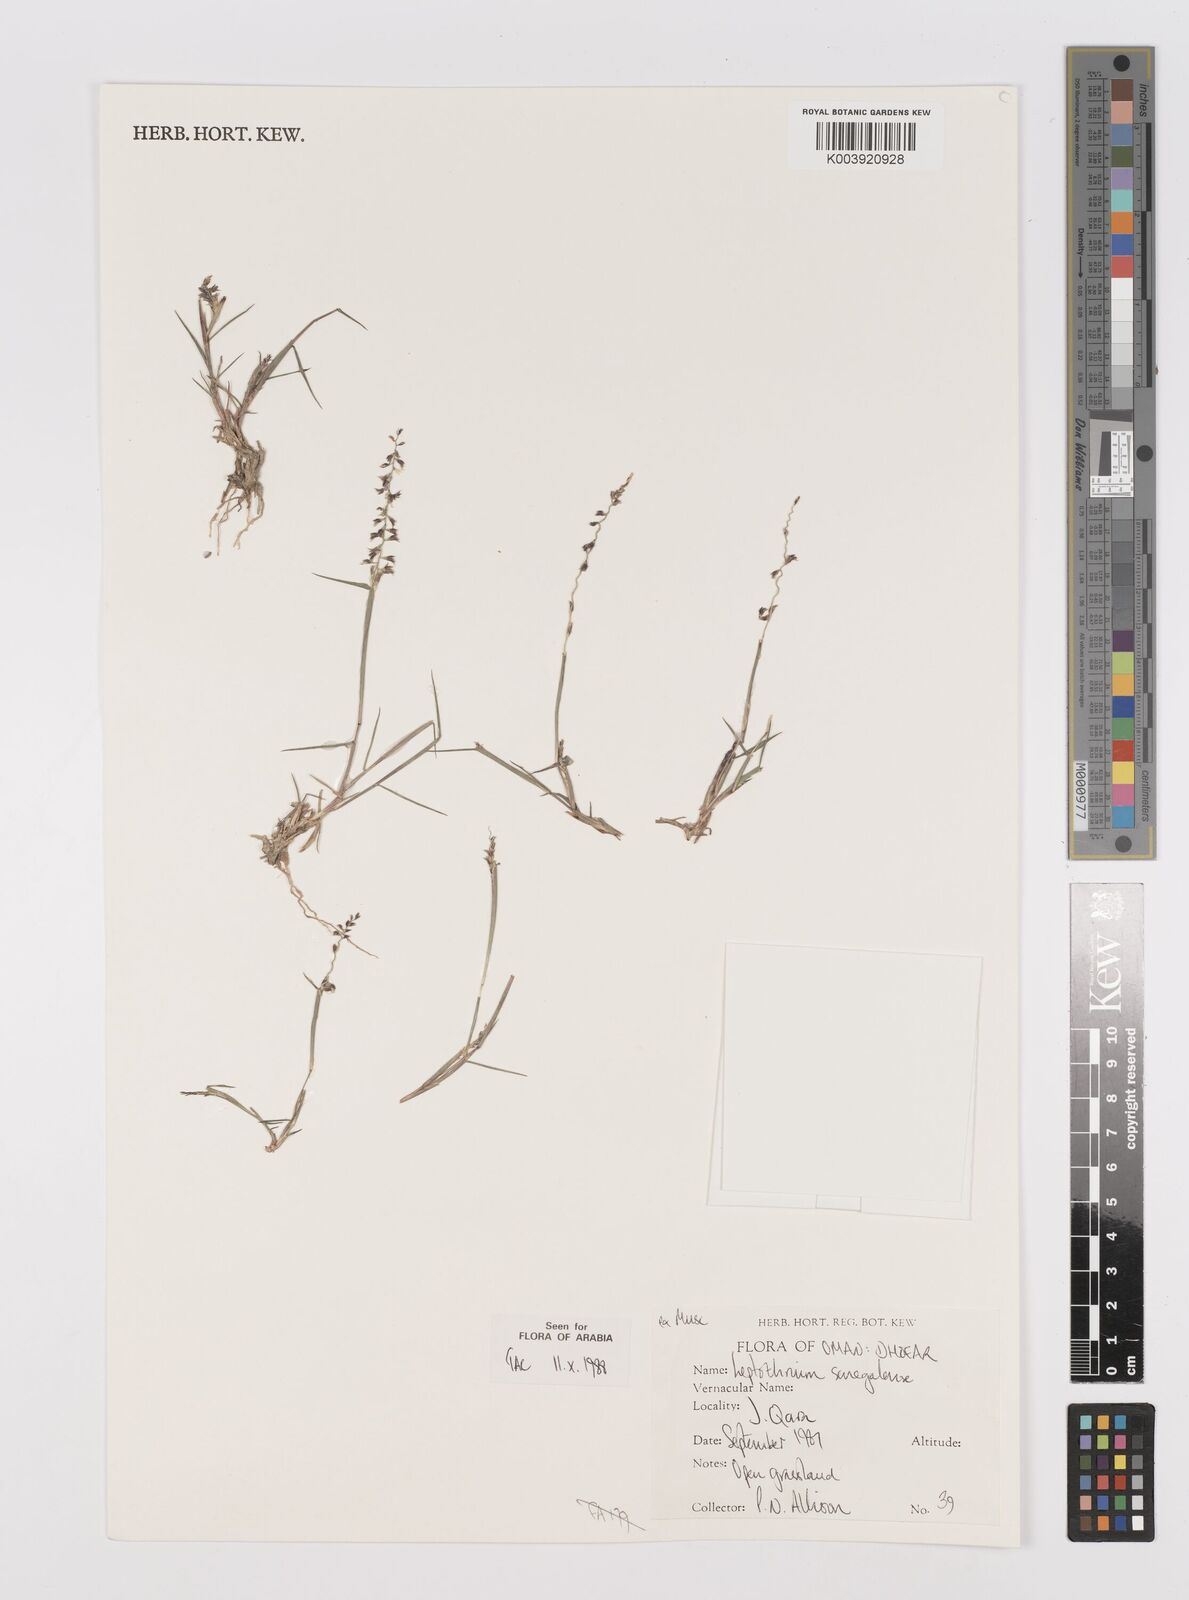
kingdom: Plantae
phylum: Tracheophyta
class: Liliopsida
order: Poales
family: Poaceae
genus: Leptothrium
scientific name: Leptothrium senegalense
